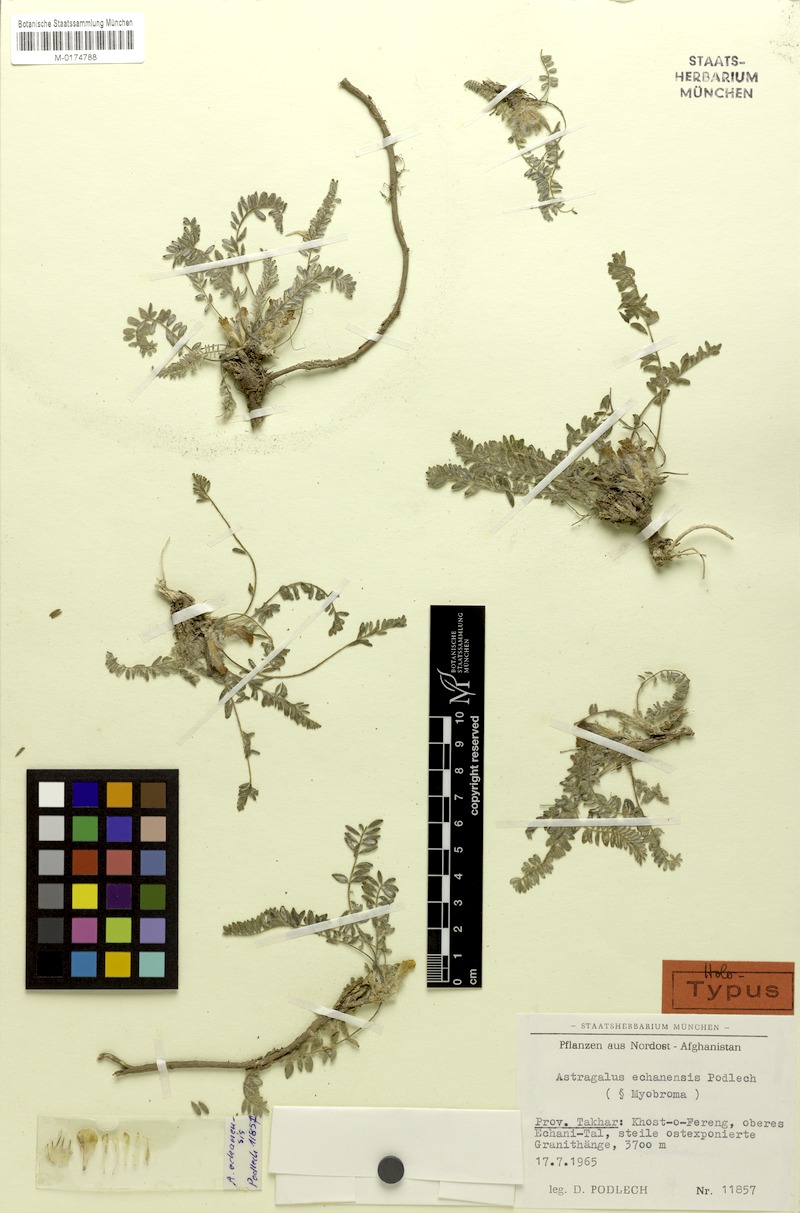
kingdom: Plantae
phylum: Tracheophyta
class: Magnoliopsida
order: Fabales
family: Fabaceae
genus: Astragalus
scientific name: Astragalus echanensis
